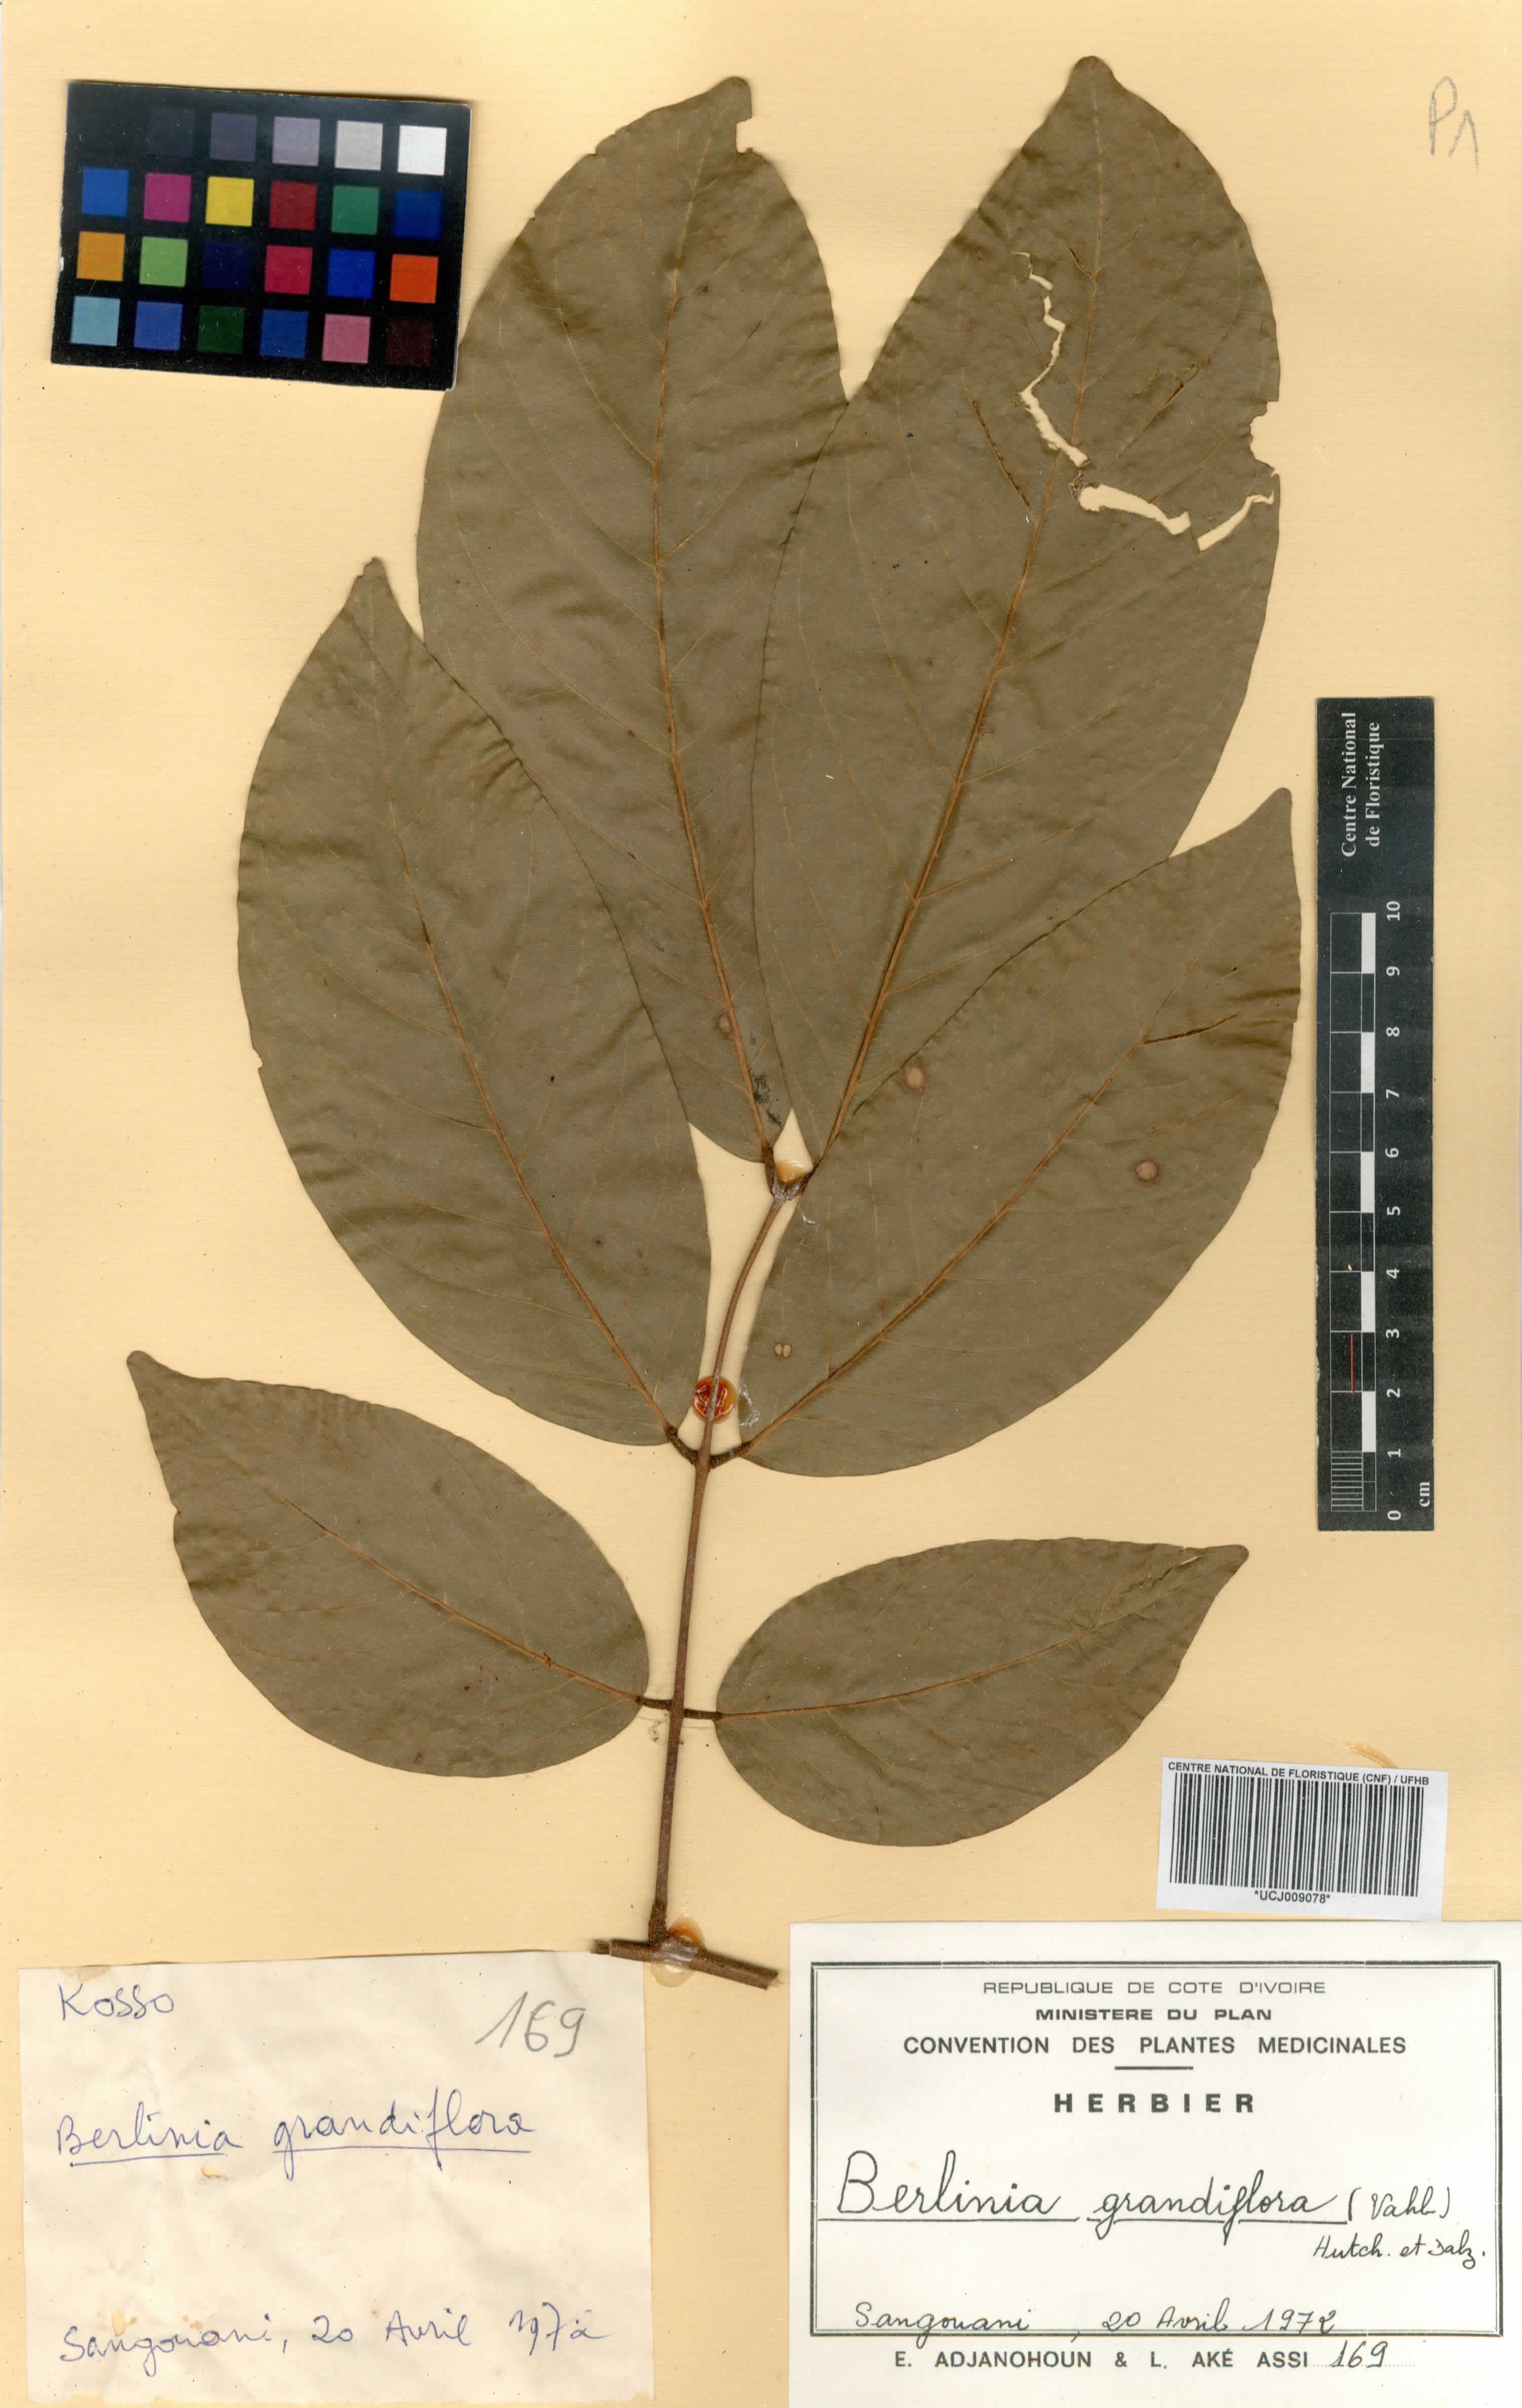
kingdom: Plantae
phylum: Tracheophyta
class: Magnoliopsida
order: Fabales
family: Fabaceae
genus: Berlinia
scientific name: Berlinia grandiflora
